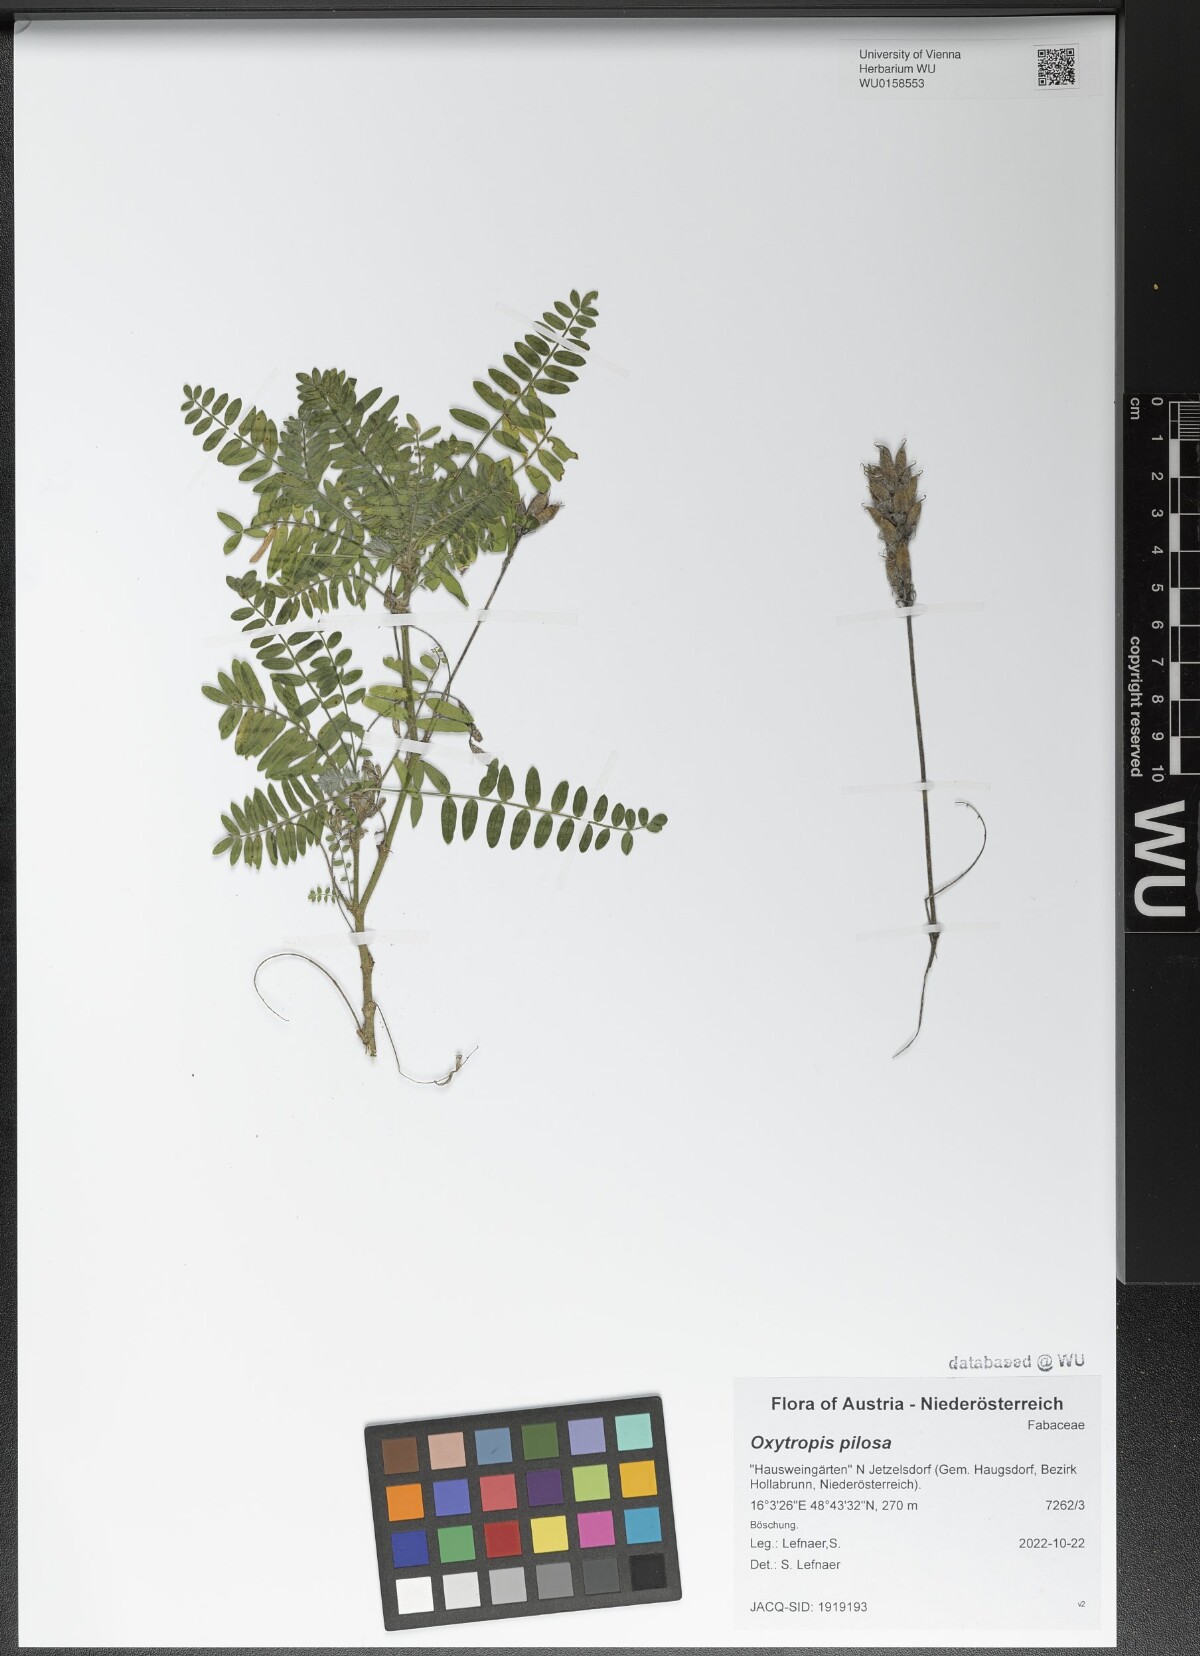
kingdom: Plantae
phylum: Tracheophyta
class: Magnoliopsida
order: Fabales
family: Fabaceae
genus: Oxytropis
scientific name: Oxytropis pilosa
